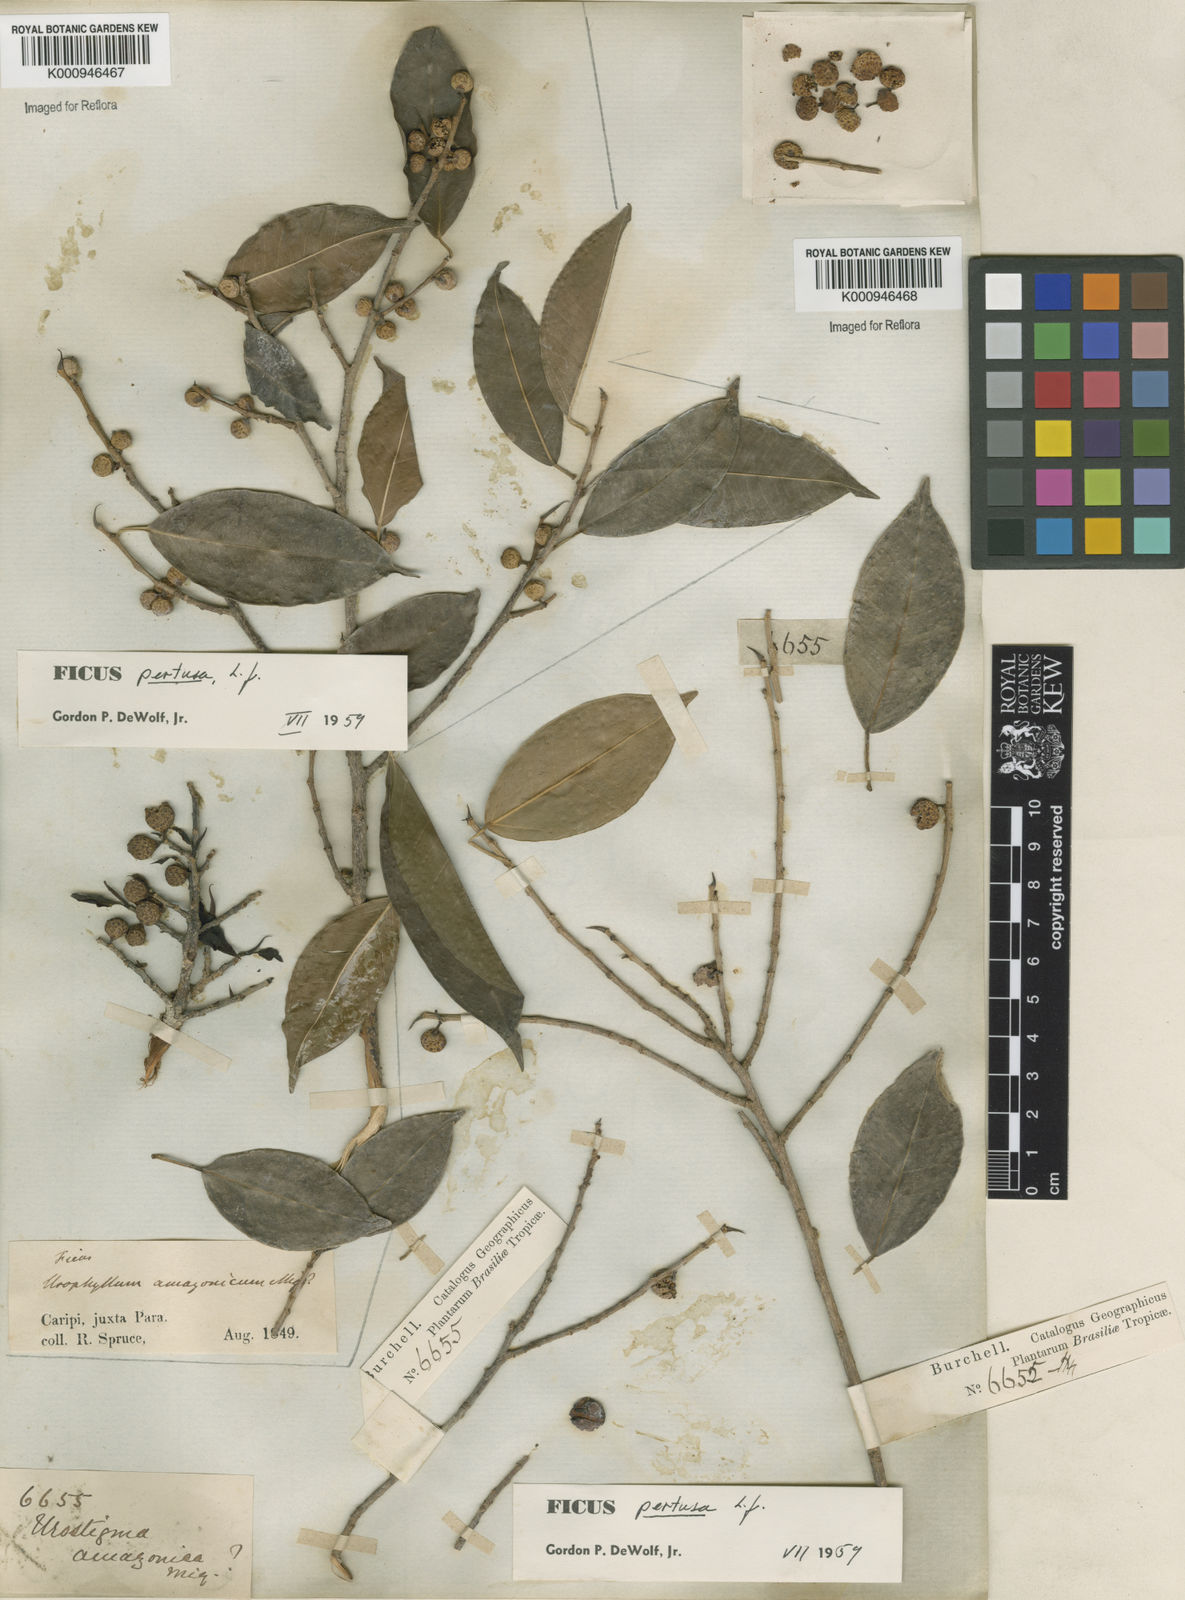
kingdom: Plantae
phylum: Tracheophyta
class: Magnoliopsida
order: Rosales
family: Moraceae
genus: Ficus
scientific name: Ficus pertusa
